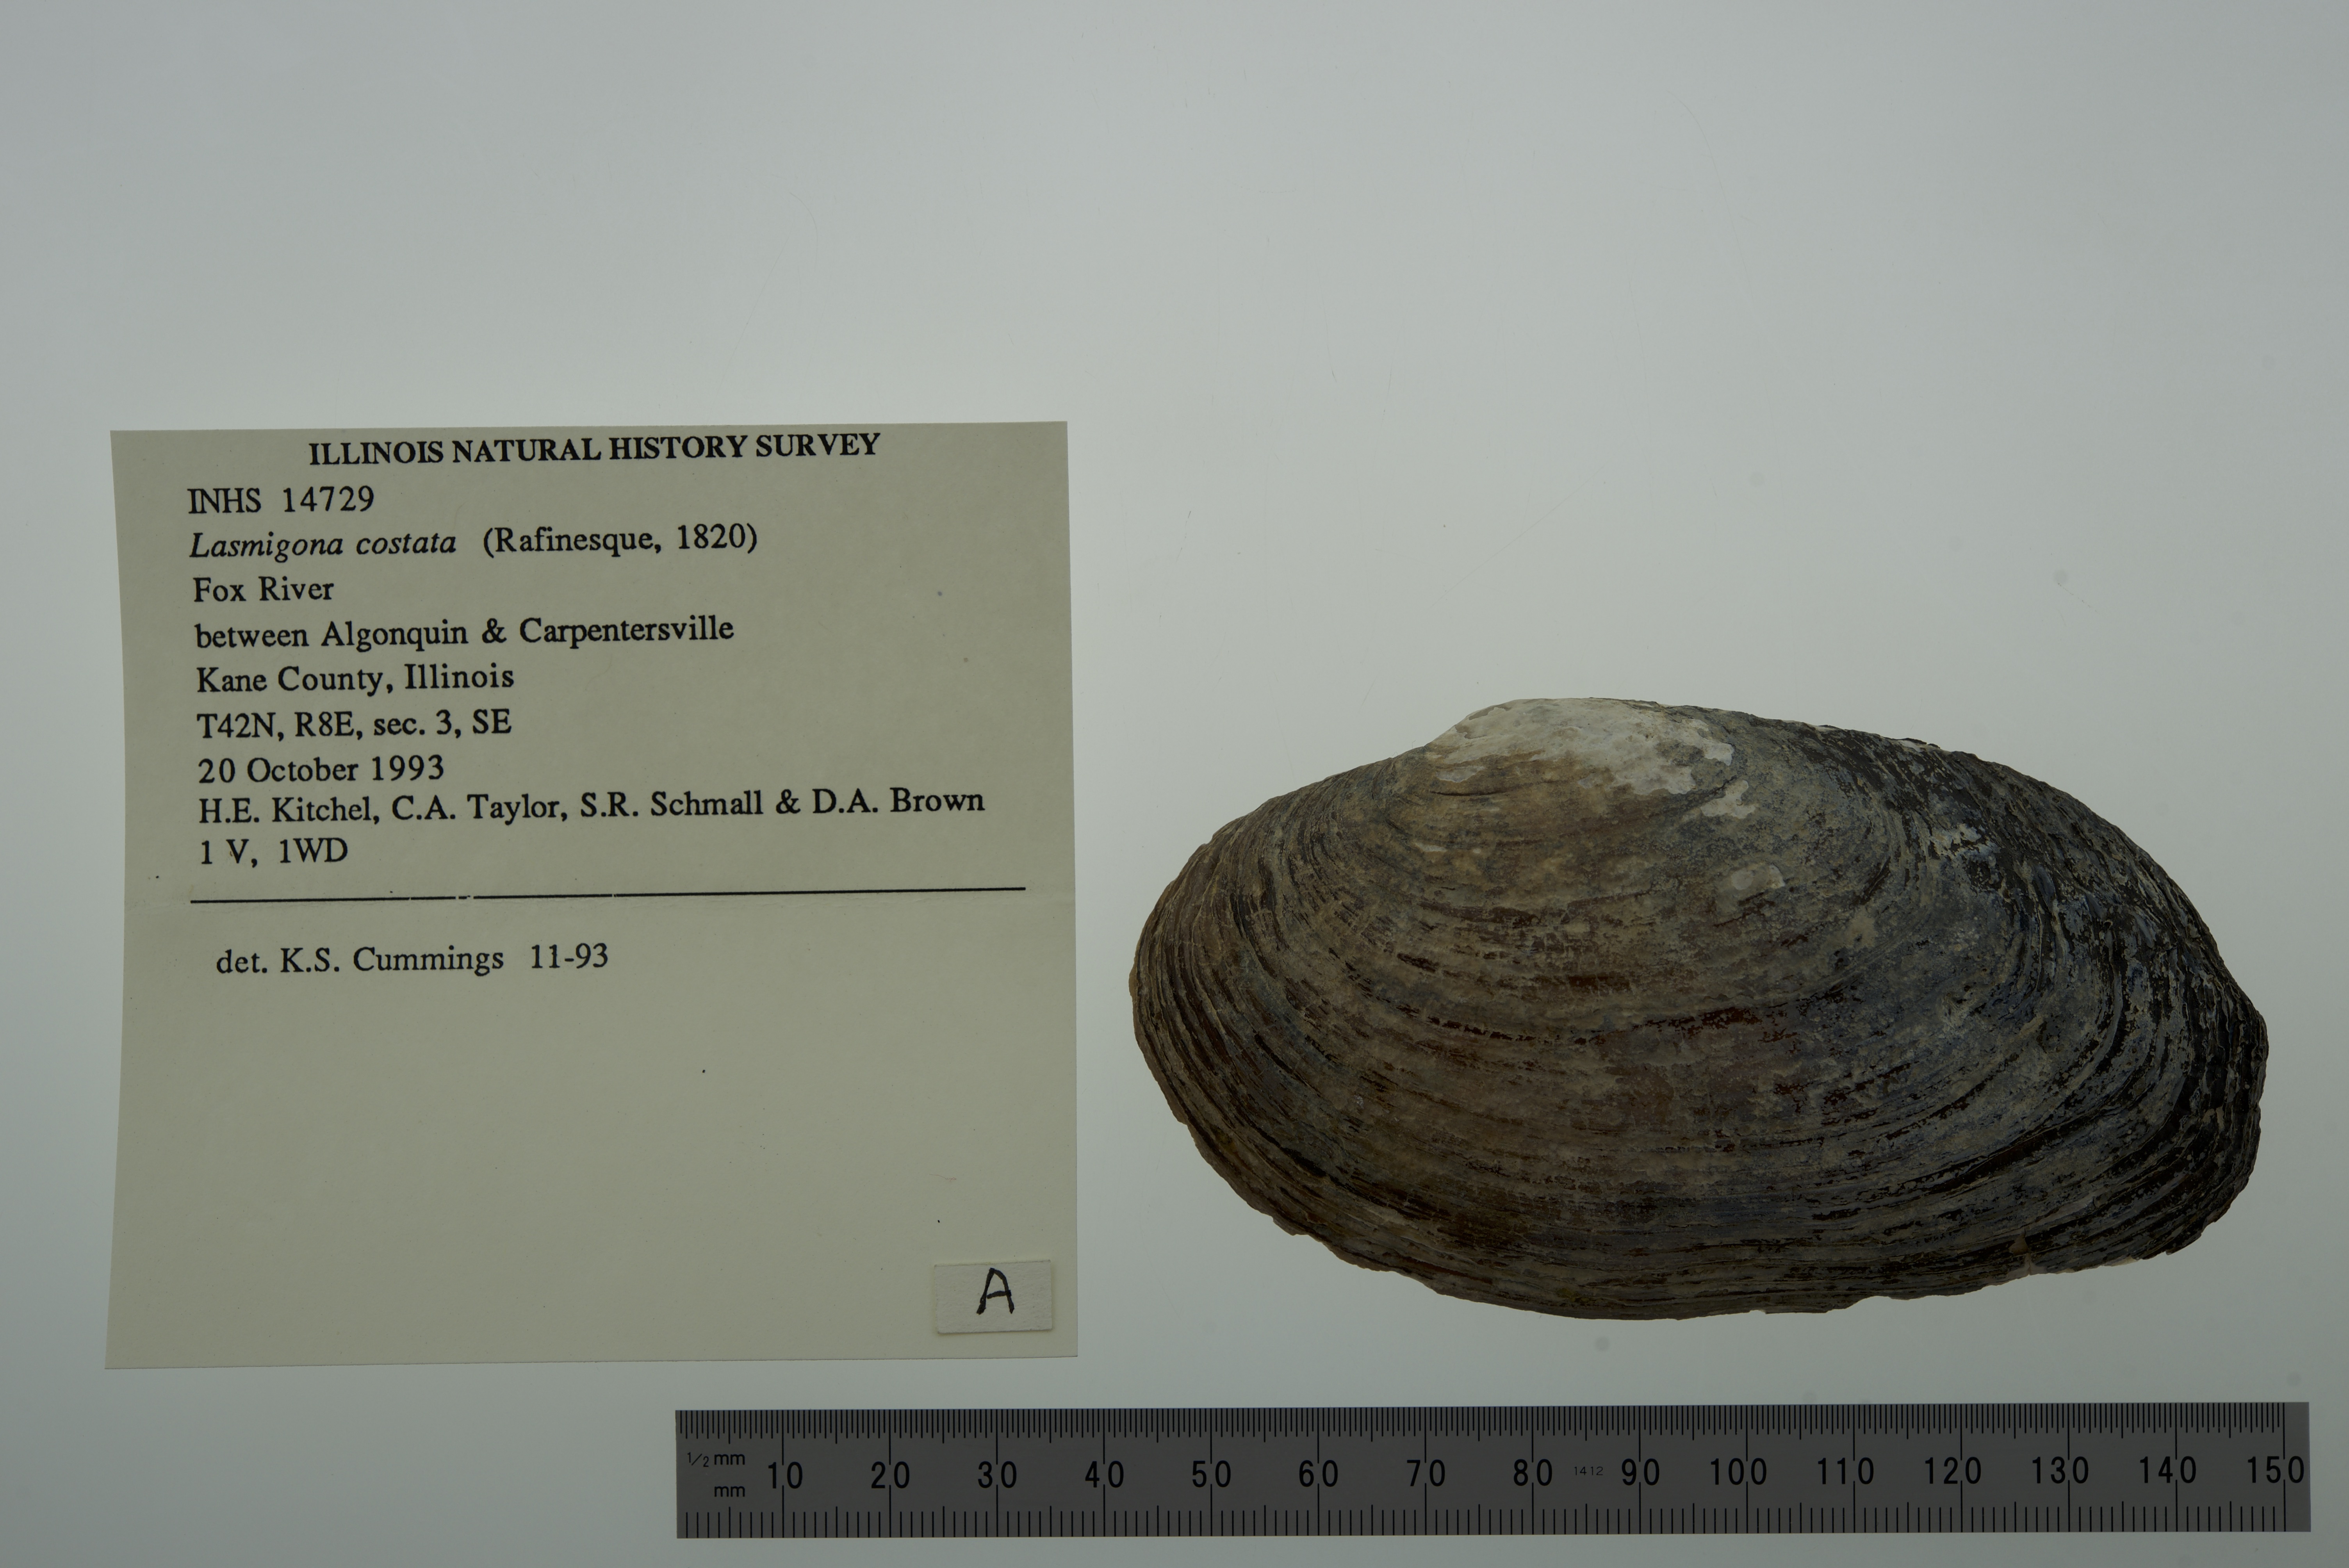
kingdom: Animalia
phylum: Mollusca
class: Bivalvia
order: Unionida
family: Unionidae
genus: Lasmigona
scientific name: Lasmigona costata
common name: Flutedshell
